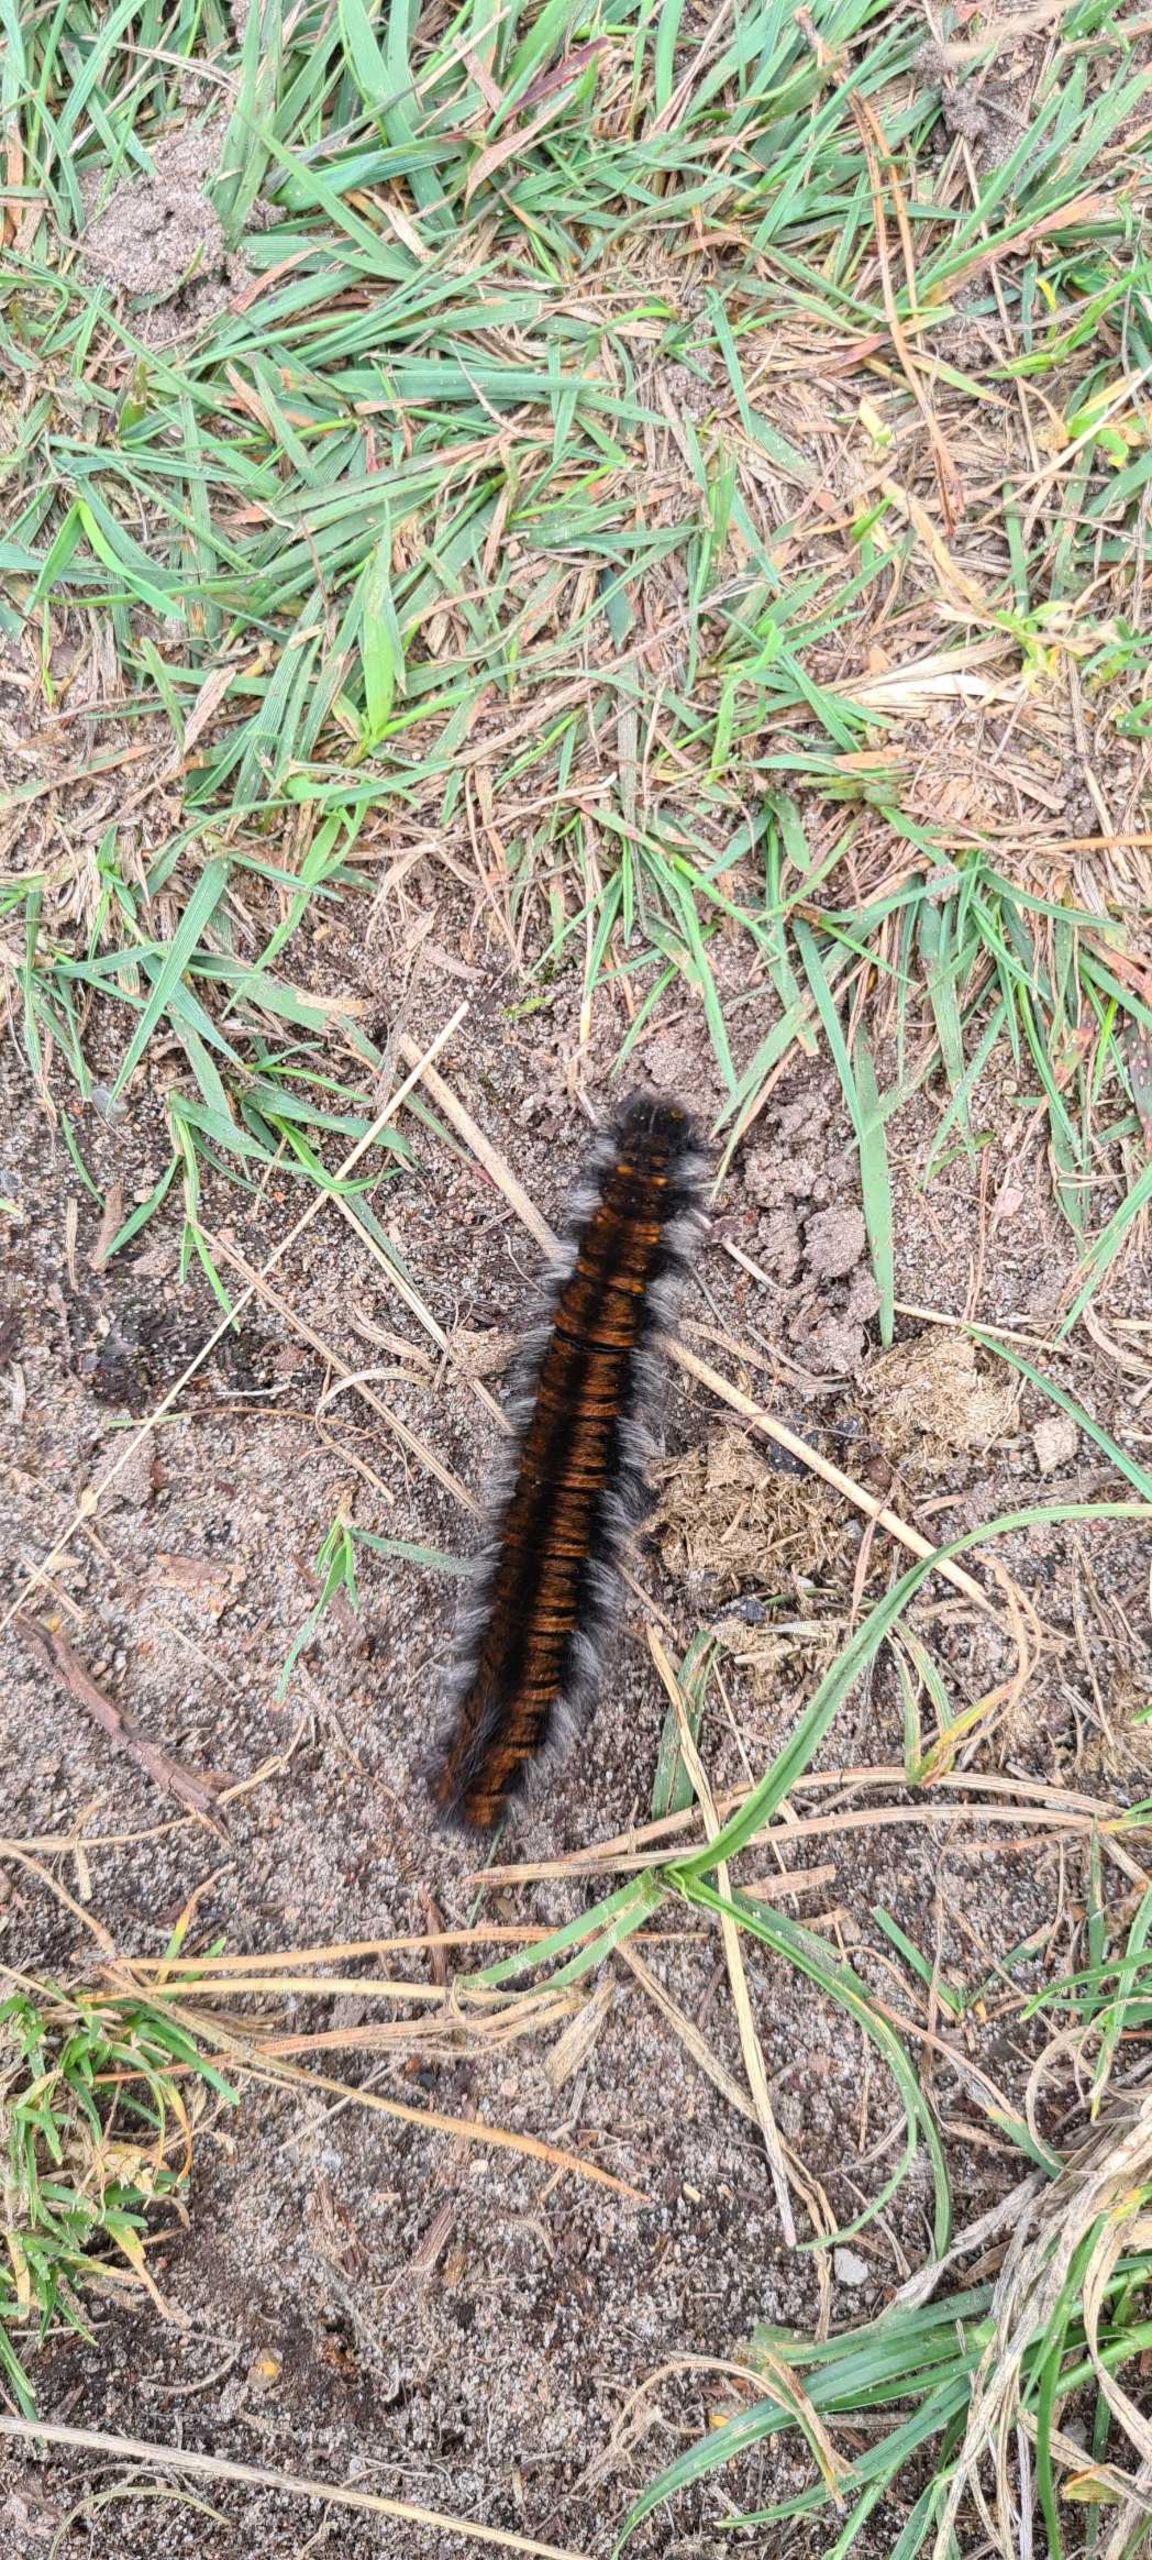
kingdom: Animalia
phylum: Arthropoda
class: Insecta
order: Lepidoptera
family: Lasiocampidae
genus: Macrothylacia
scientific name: Macrothylacia rubi
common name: Brombærspinder
